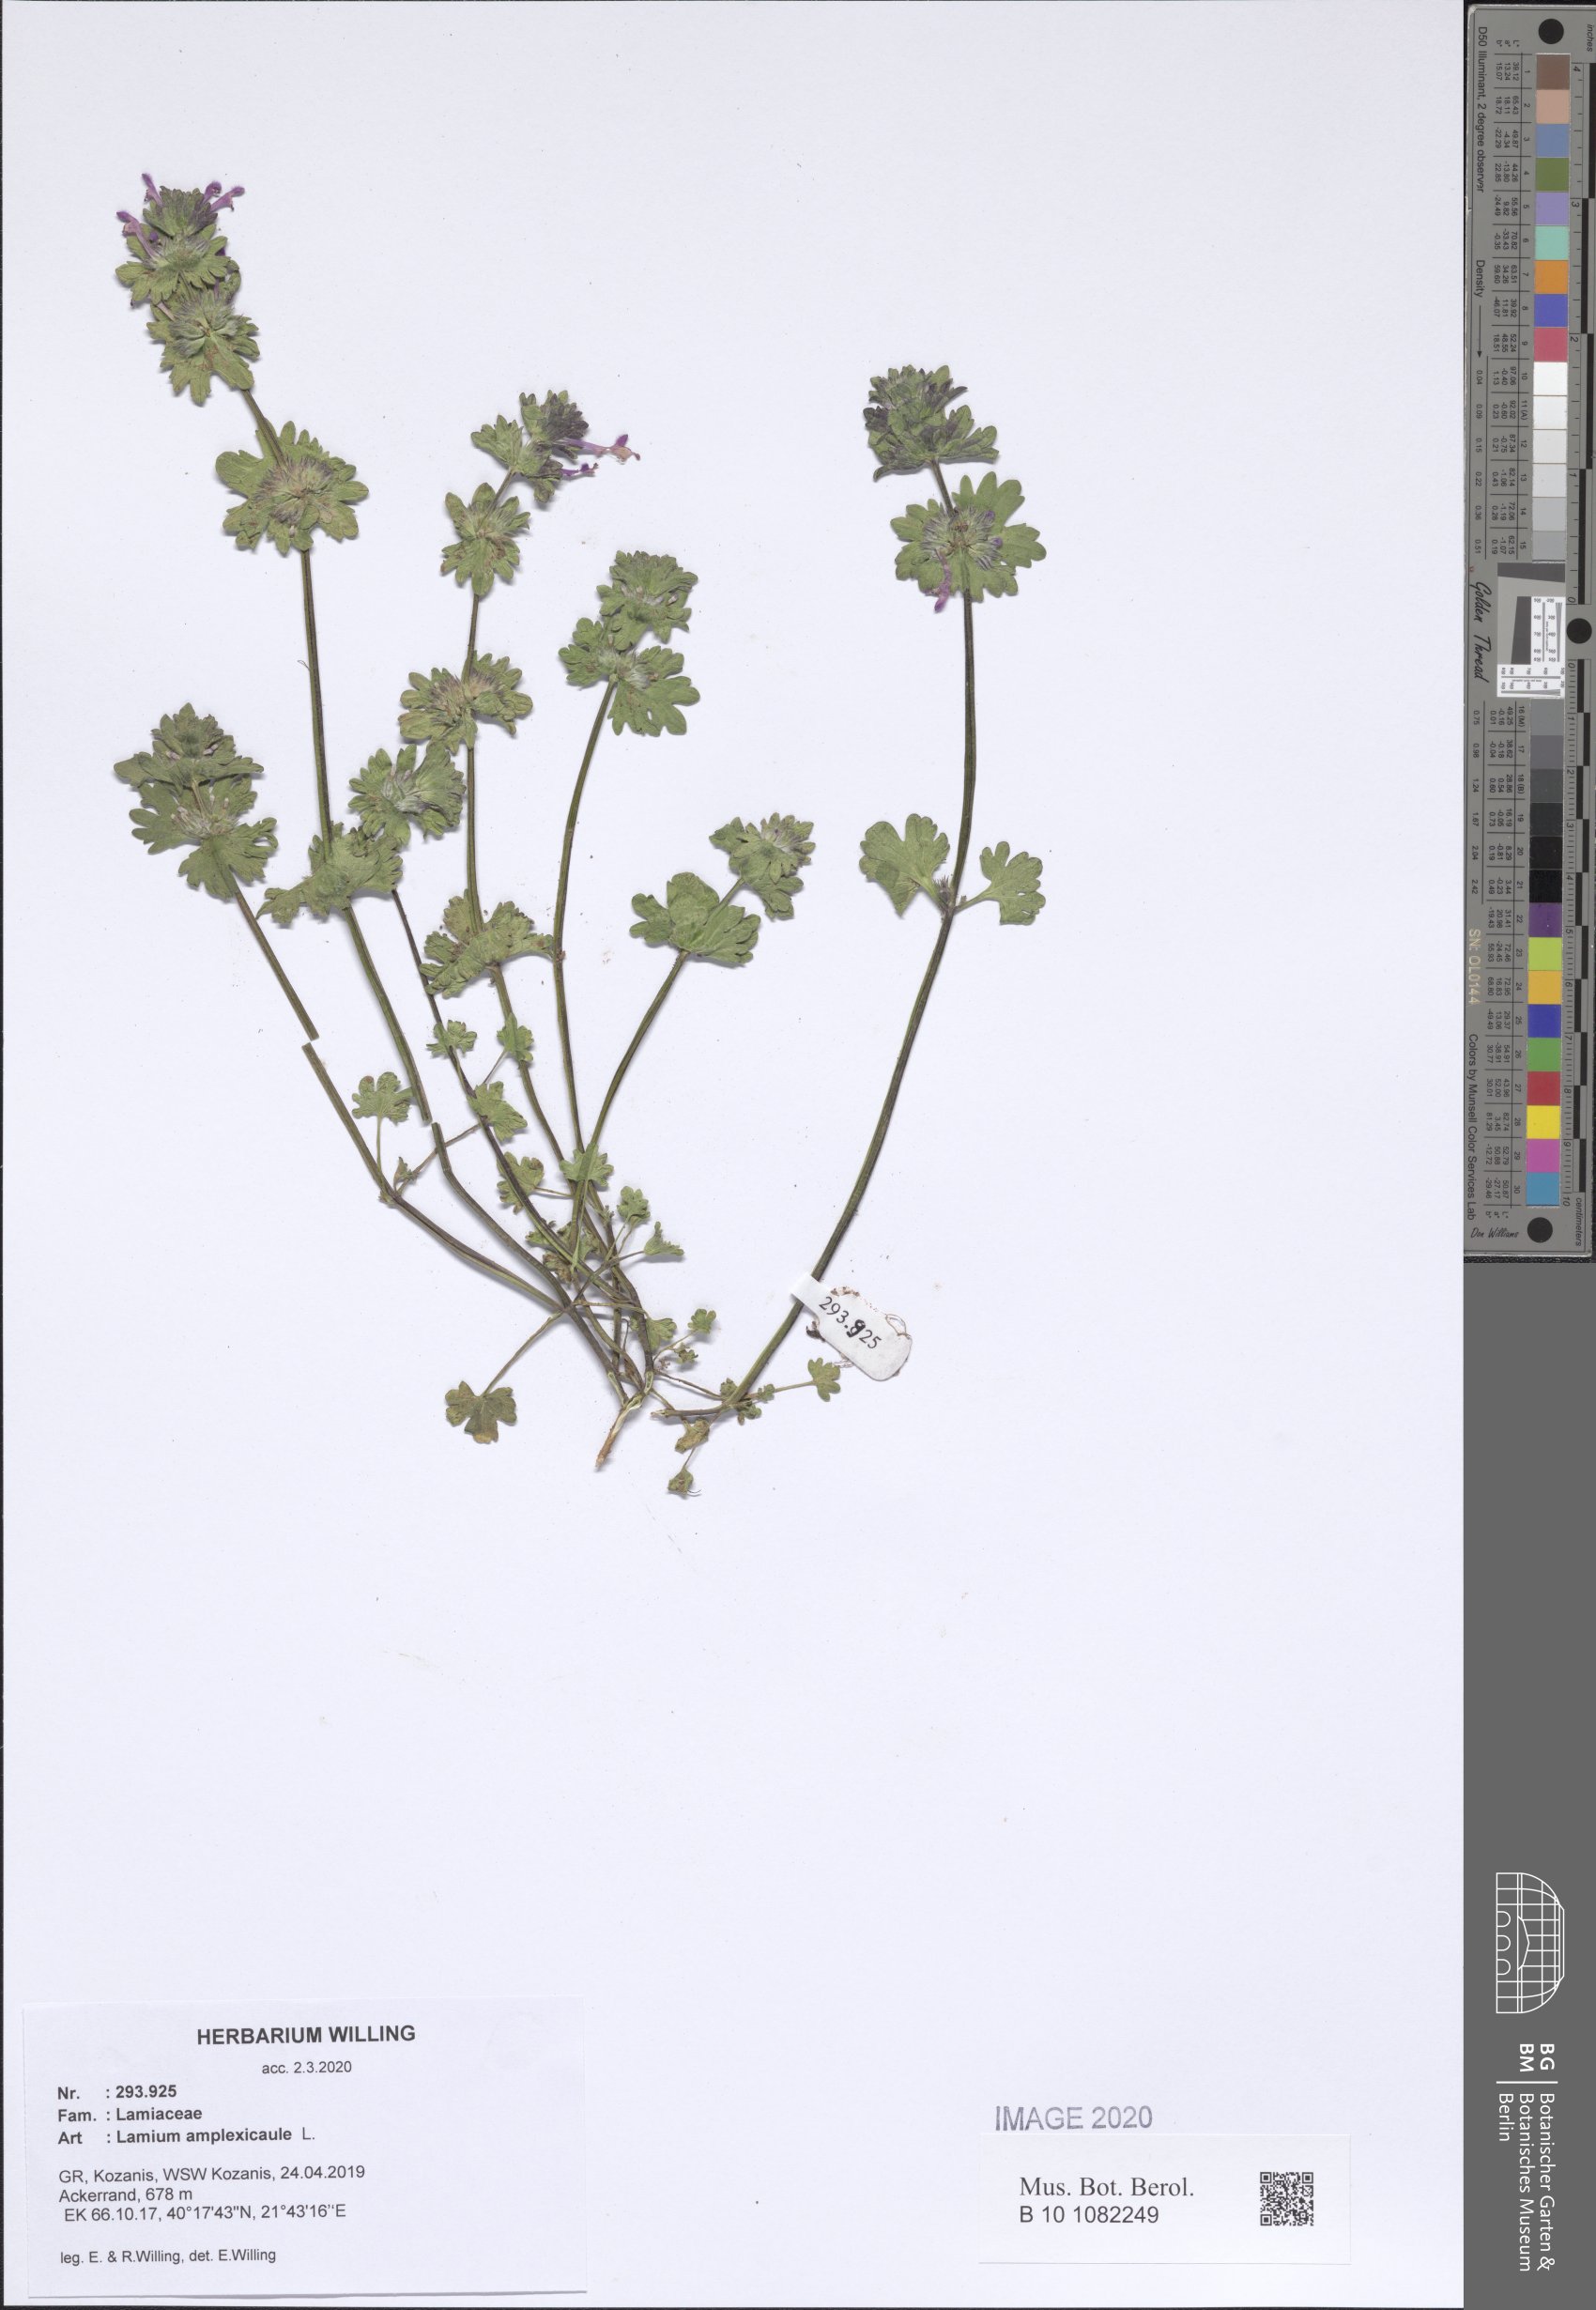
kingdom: Plantae
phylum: Tracheophyta
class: Magnoliopsida
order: Lamiales
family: Lamiaceae
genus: Lamium
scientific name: Lamium amplexicaule
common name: Henbit dead-nettle
